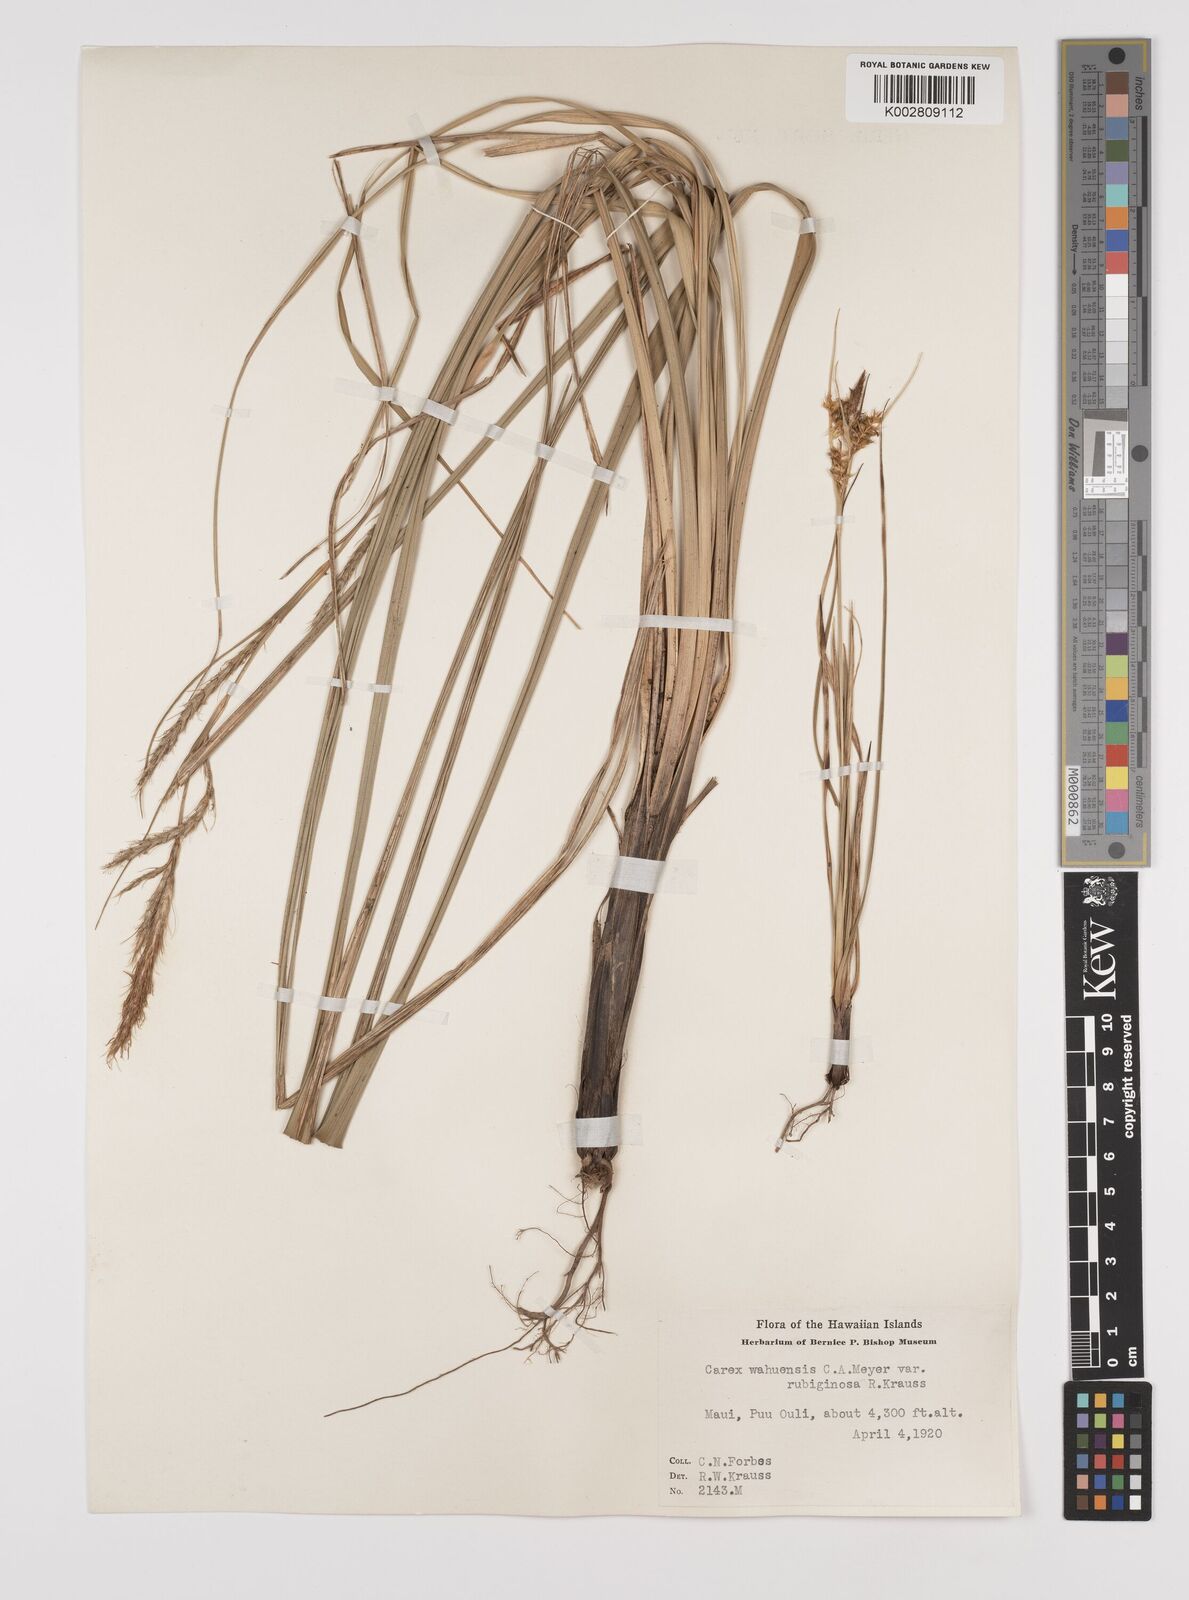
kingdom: Plantae
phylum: Tracheophyta
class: Liliopsida
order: Poales
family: Cyperaceae
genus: Carex
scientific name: Carex wahuensis
